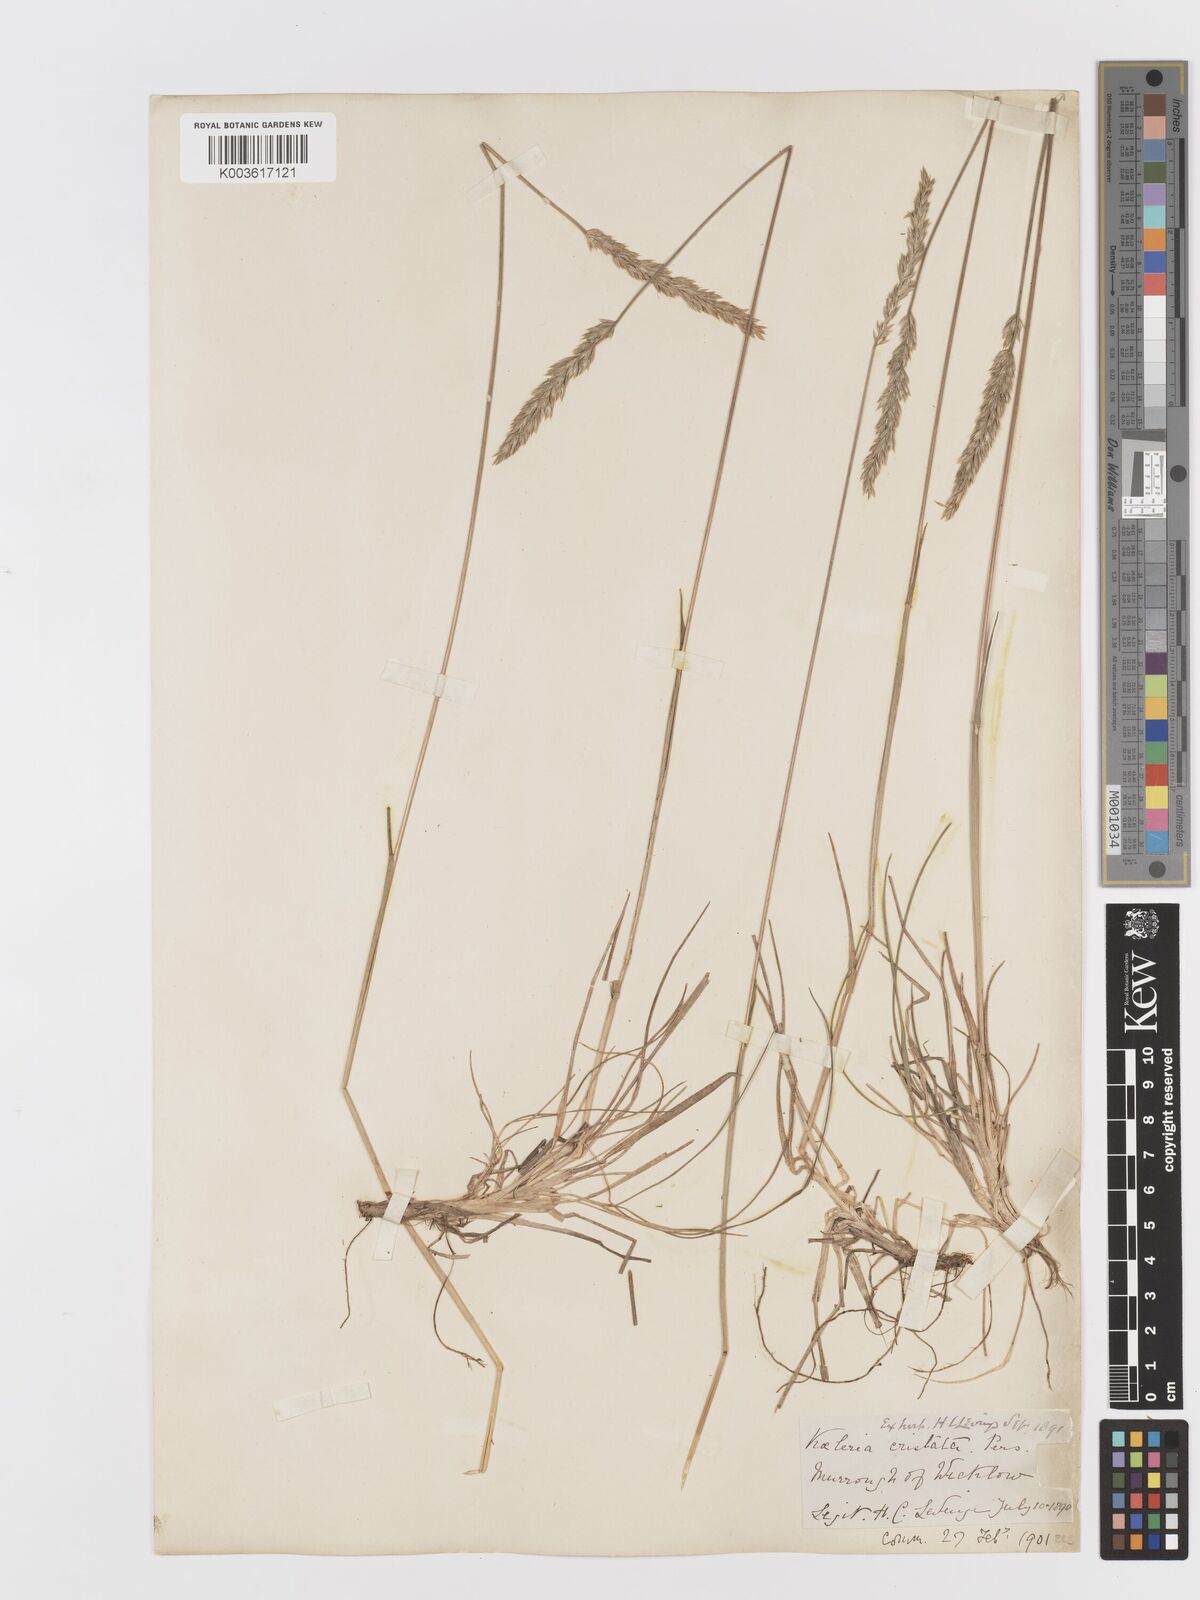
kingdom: Plantae
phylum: Tracheophyta
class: Liliopsida
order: Poales
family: Poaceae
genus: Koeleria
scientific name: Koeleria macrantha
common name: Crested hair-grass
